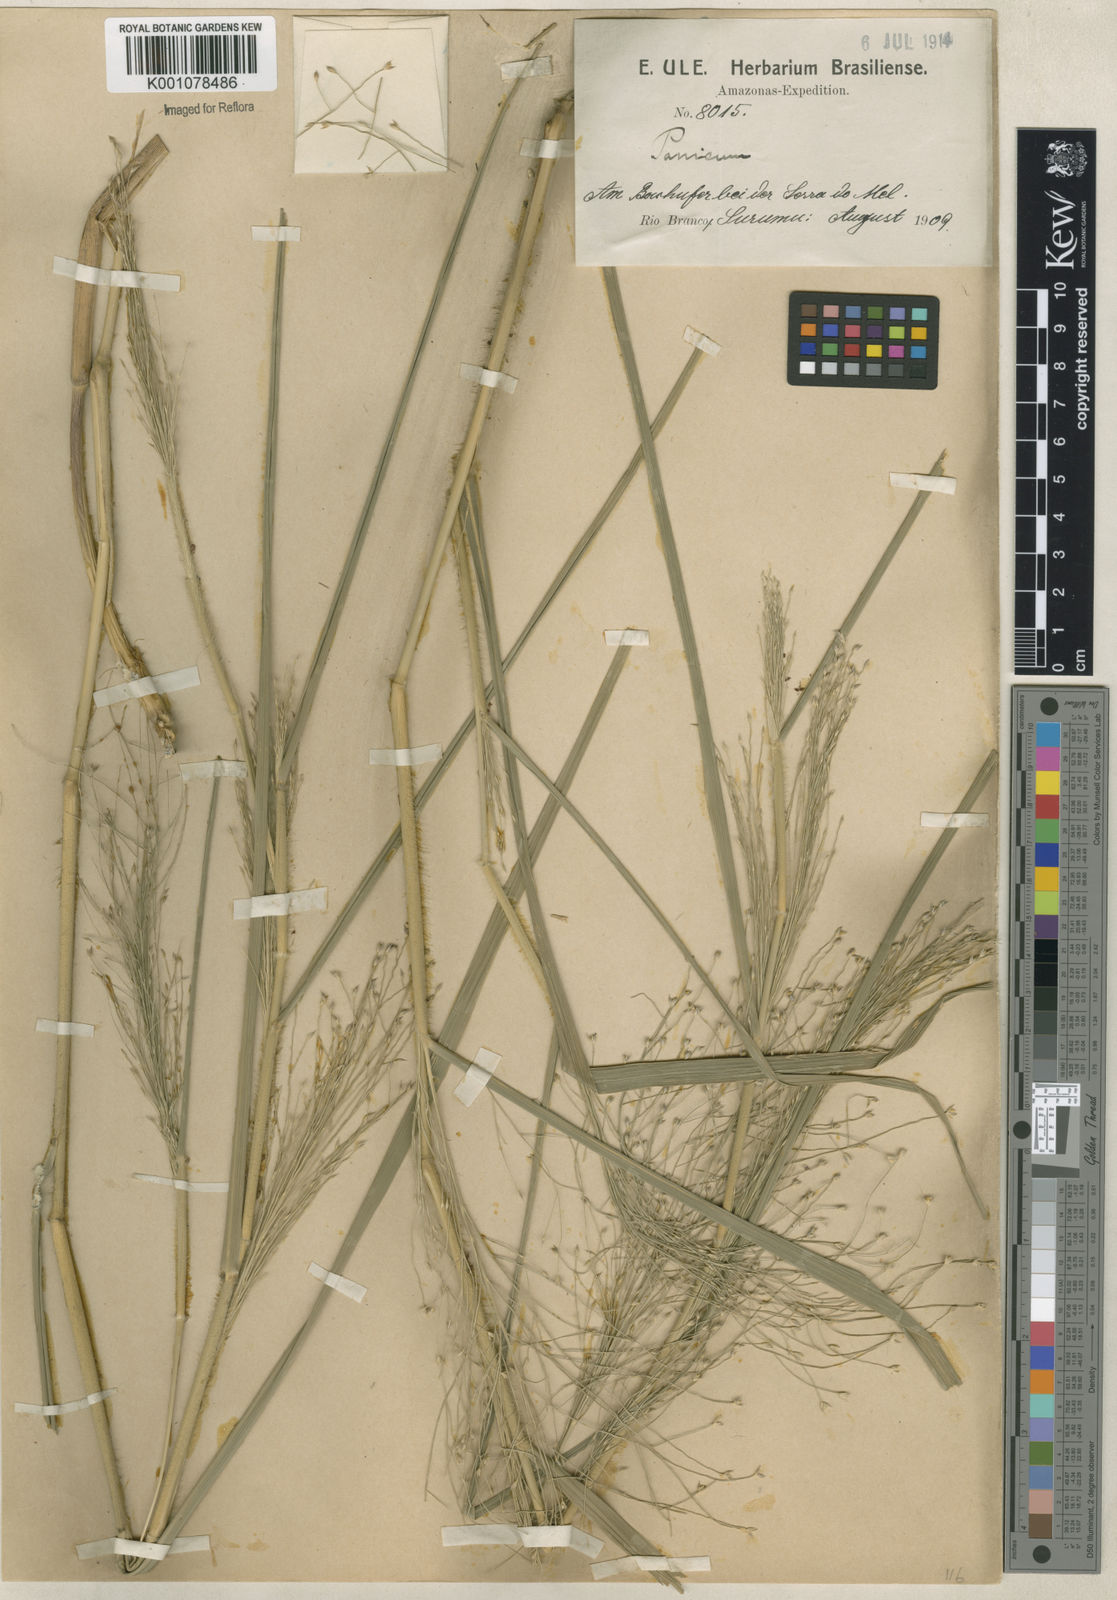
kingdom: Plantae
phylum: Tracheophyta
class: Liliopsida
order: Poales
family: Poaceae
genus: Panicum
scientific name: Panicum rudgei
